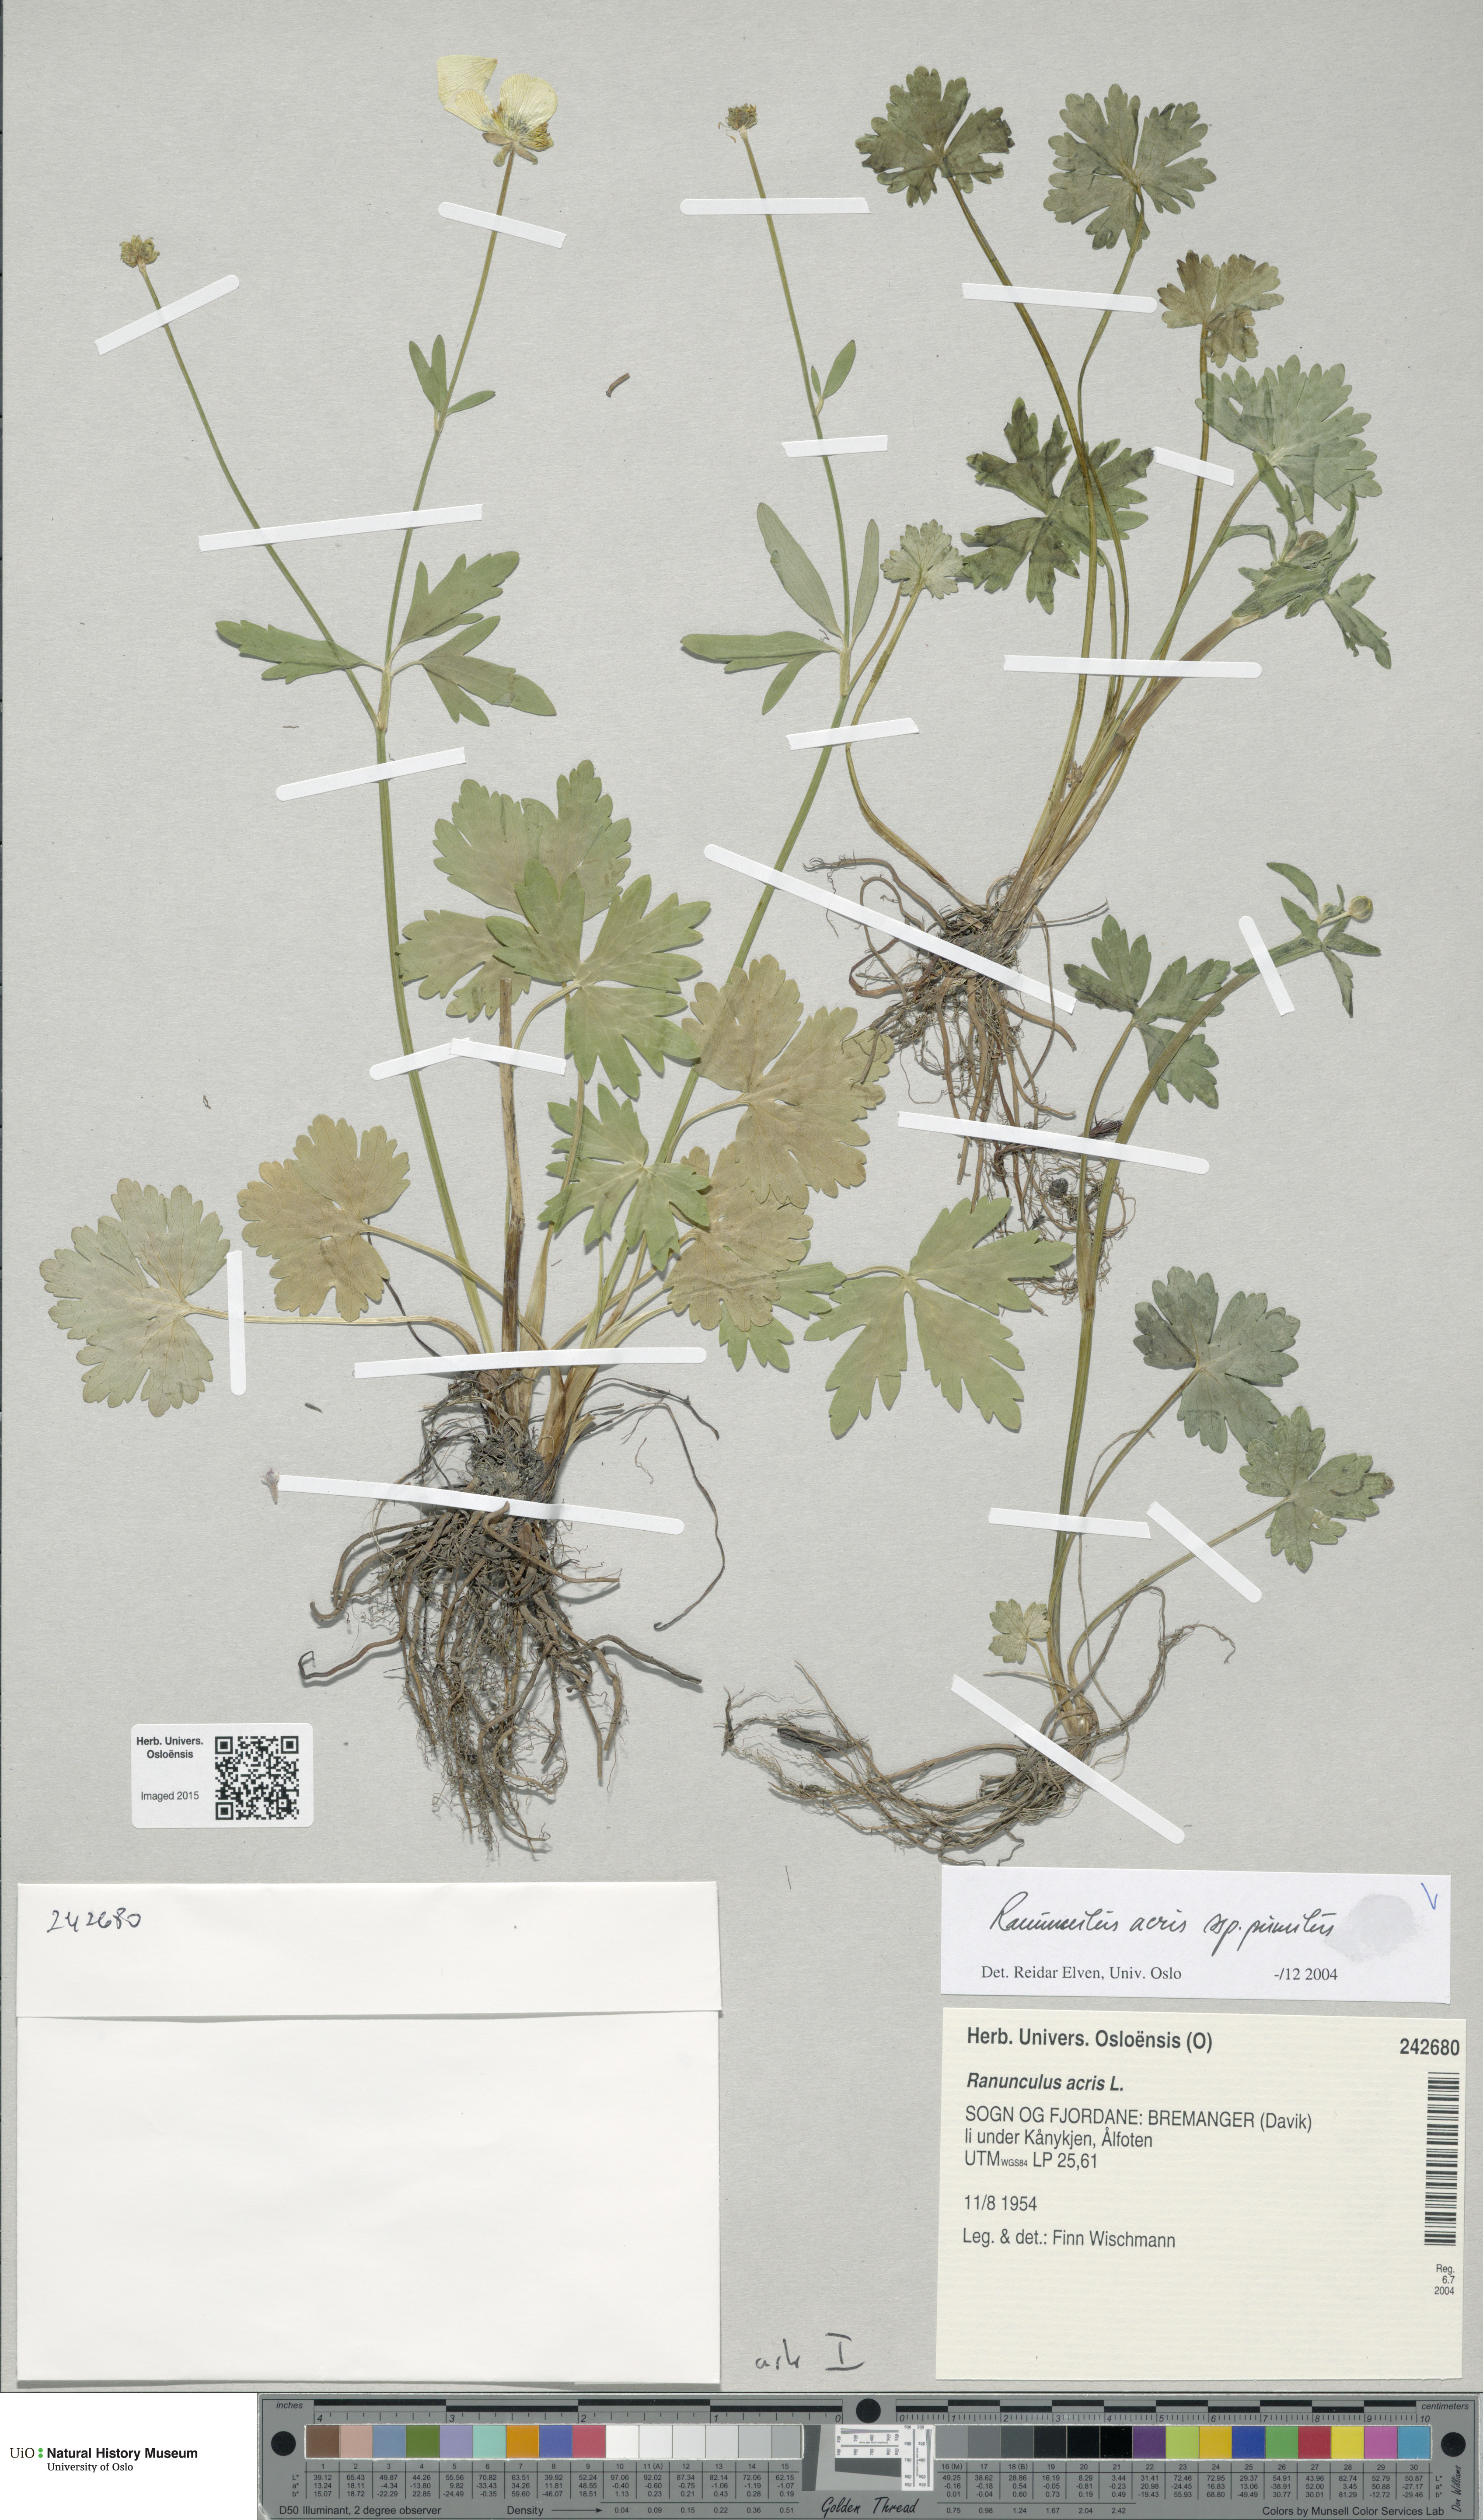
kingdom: Plantae
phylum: Tracheophyta
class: Magnoliopsida
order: Ranunculales
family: Ranunculaceae
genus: Ranunculus
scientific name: Ranunculus
